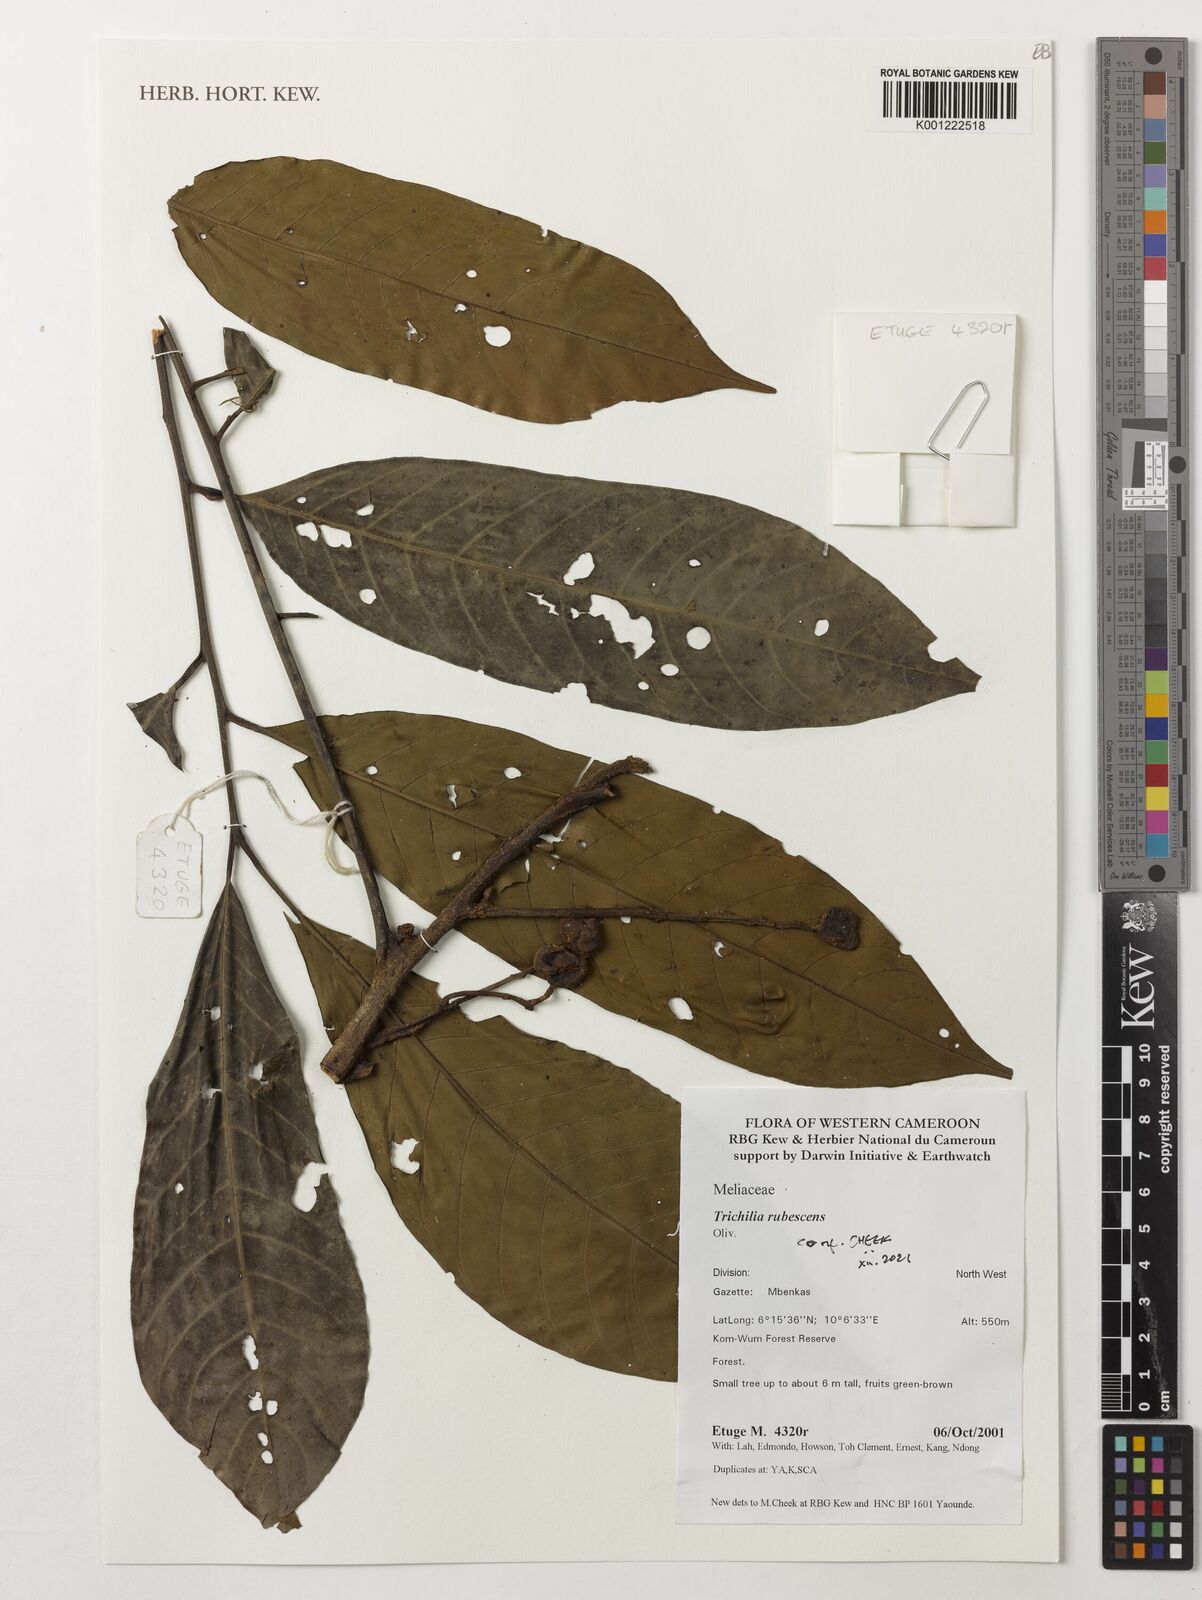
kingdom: Plantae
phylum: Tracheophyta
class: Magnoliopsida
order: Sapindales
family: Meliaceae
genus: Trichilia
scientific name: Trichilia rubescens
